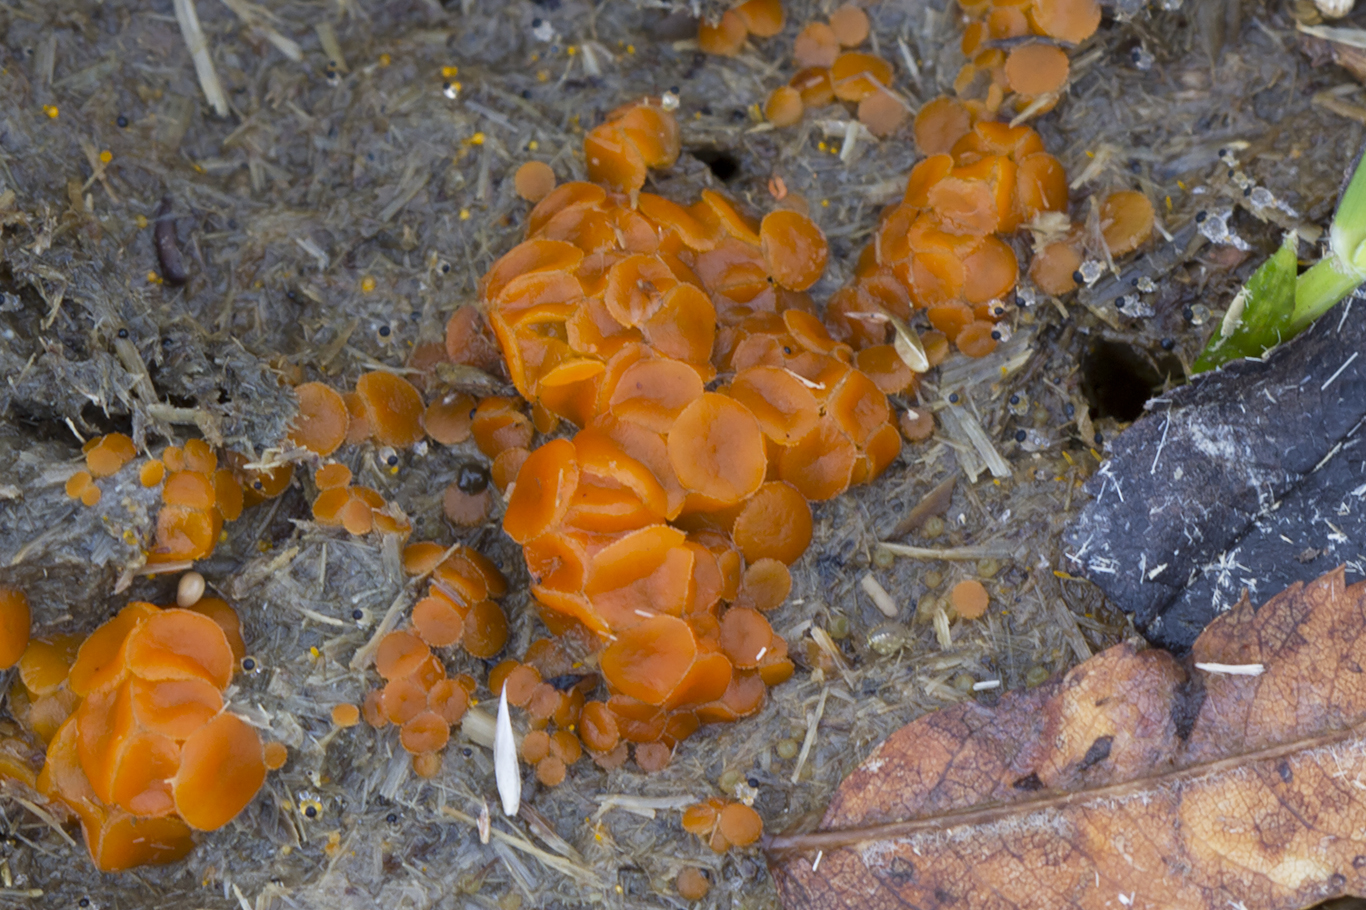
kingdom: Fungi
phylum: Ascomycota
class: Pezizomycetes
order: Pezizales
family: Pyronemataceae
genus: Cheilymenia
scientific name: Cheilymenia granulata
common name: møgbæger
